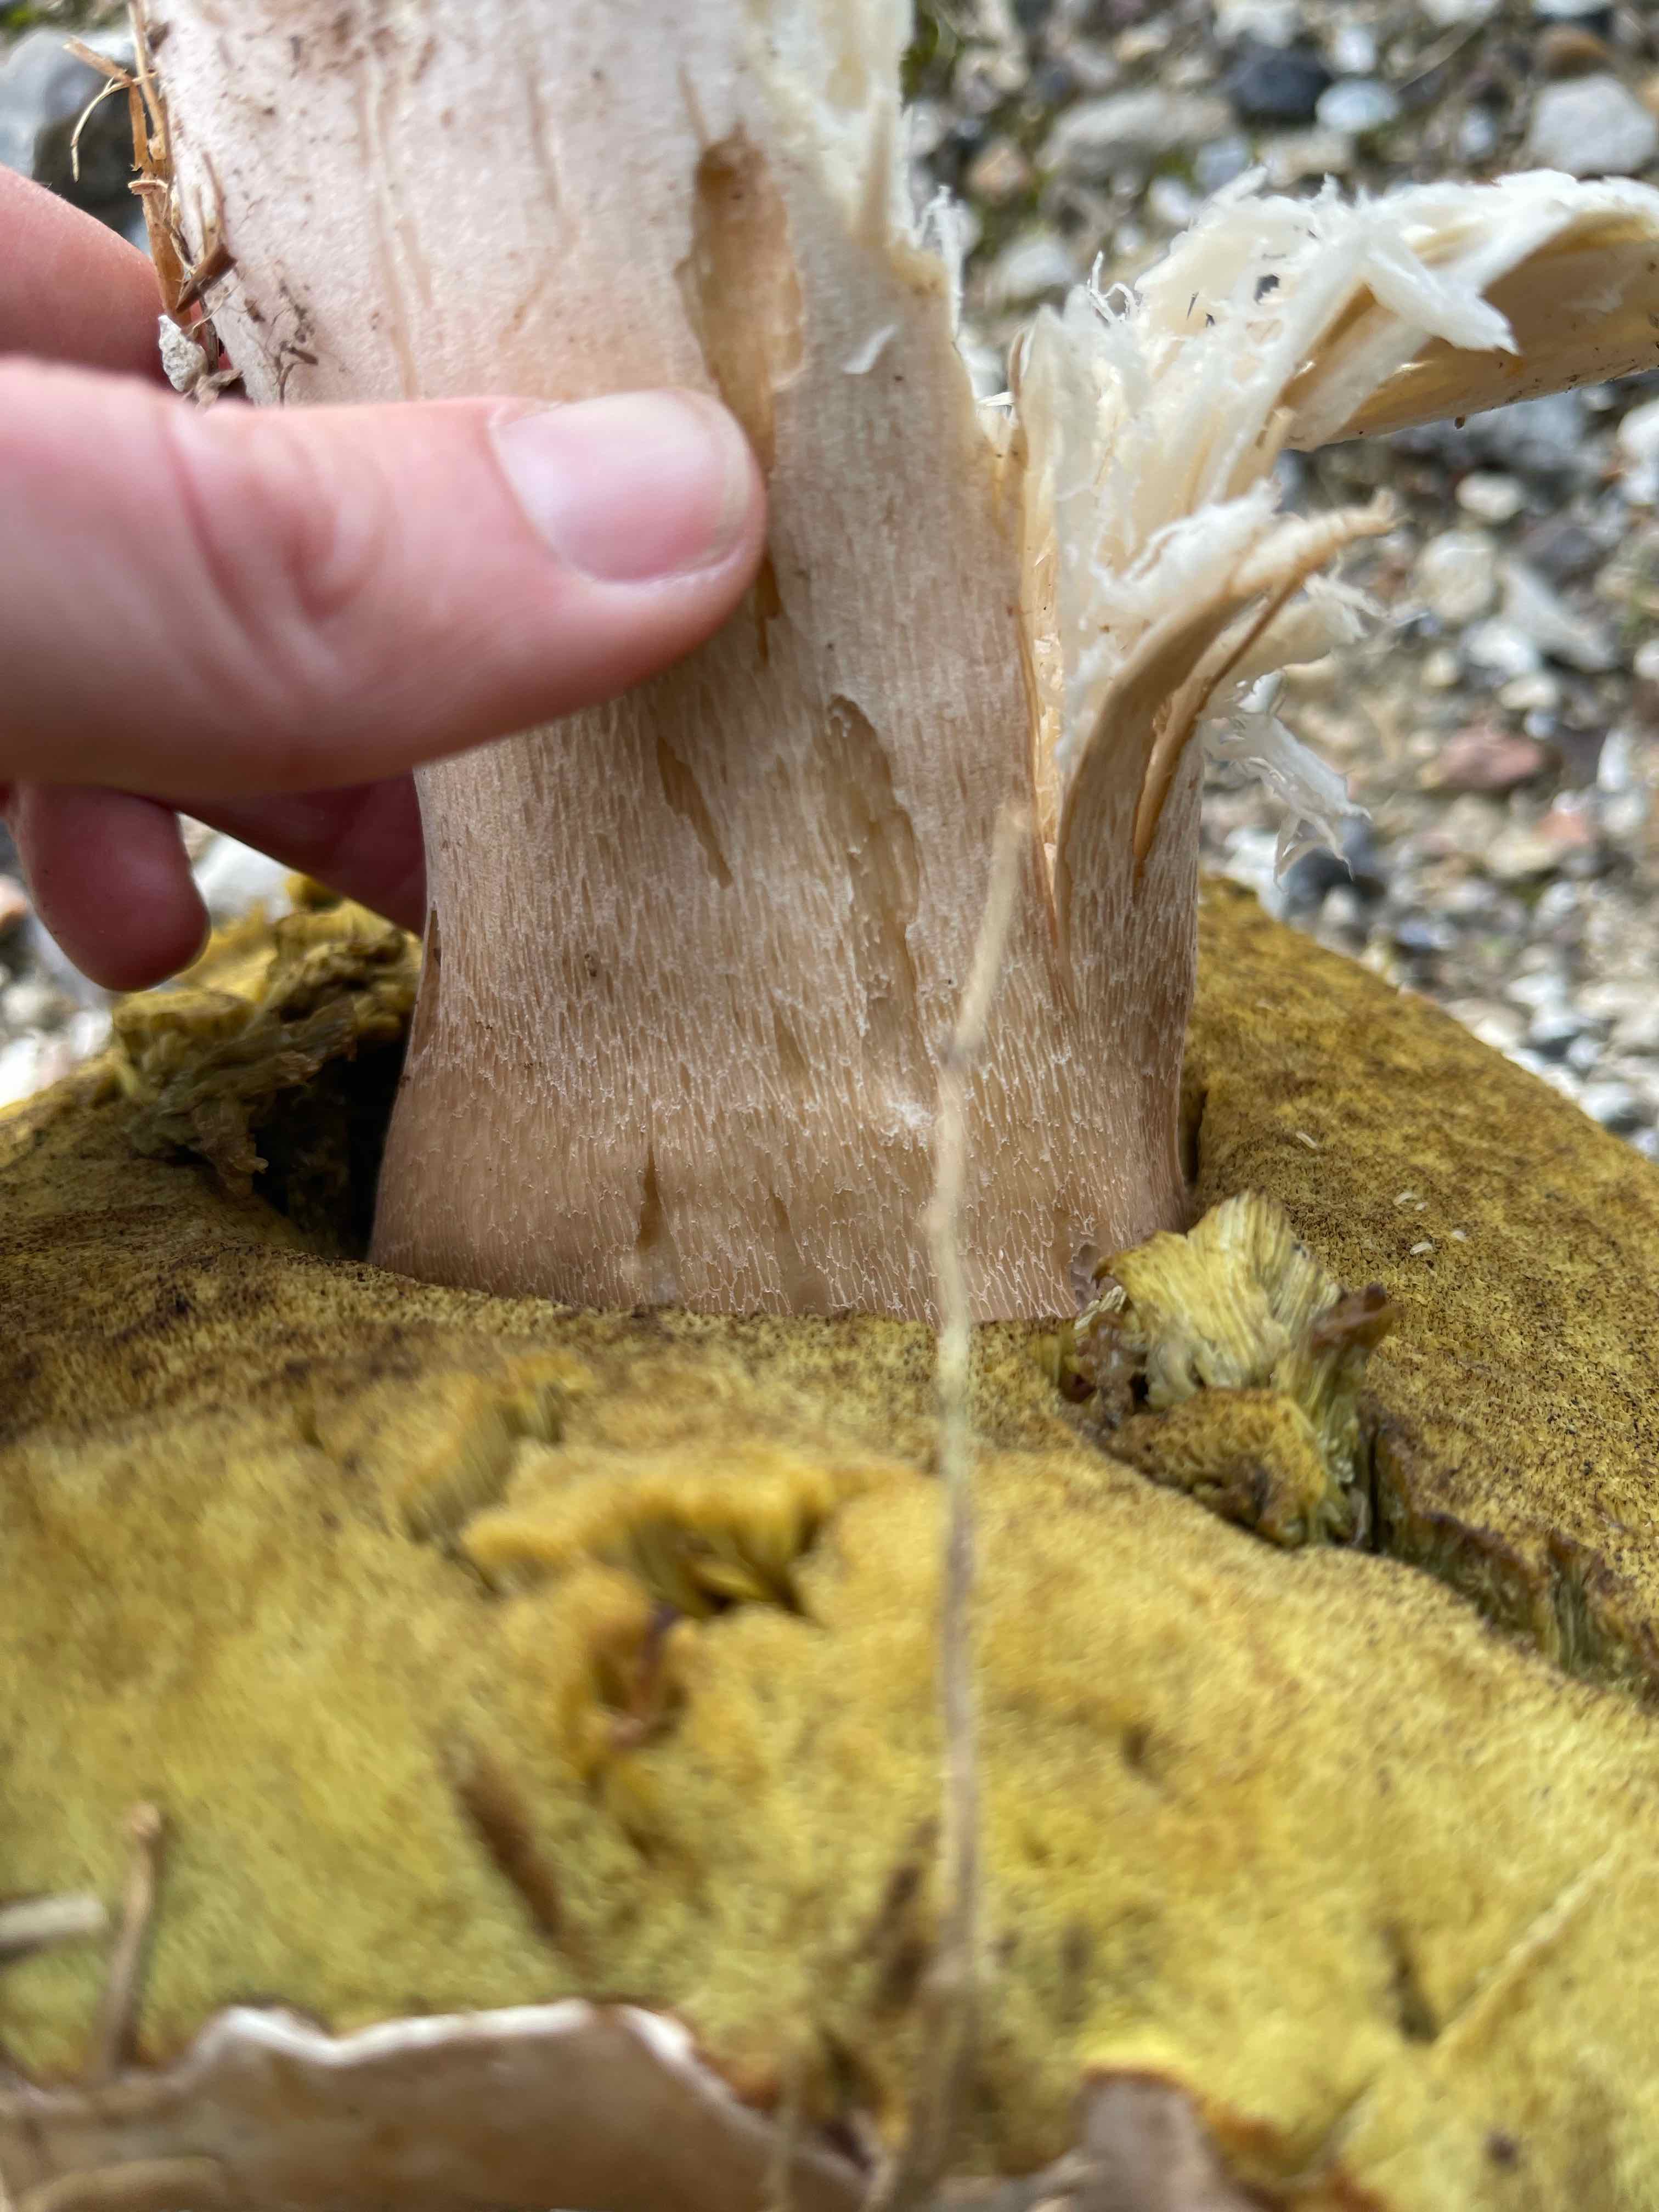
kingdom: Fungi
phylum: Basidiomycota
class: Agaricomycetes
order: Boletales
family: Boletaceae
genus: Boletus
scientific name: Boletus edulis
